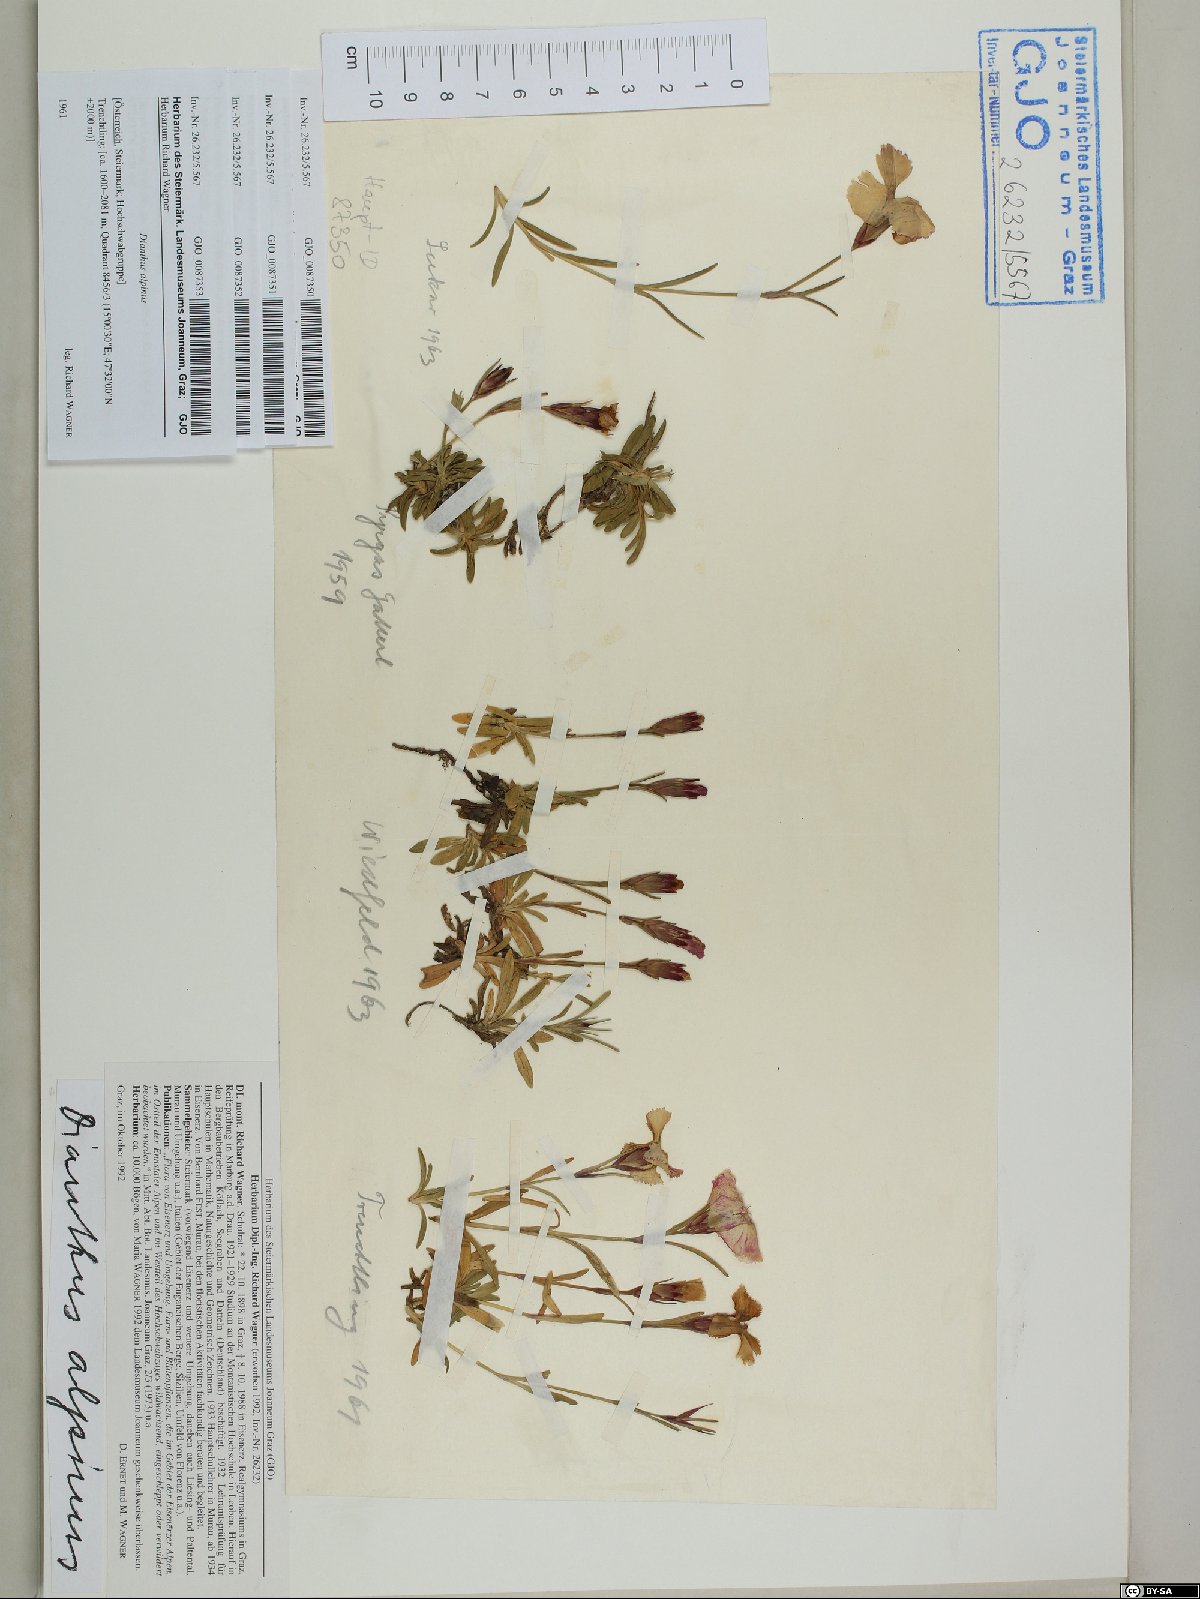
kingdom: Plantae
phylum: Tracheophyta
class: Magnoliopsida
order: Caryophyllales
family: Caryophyllaceae
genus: Dianthus
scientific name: Dianthus alpinus
